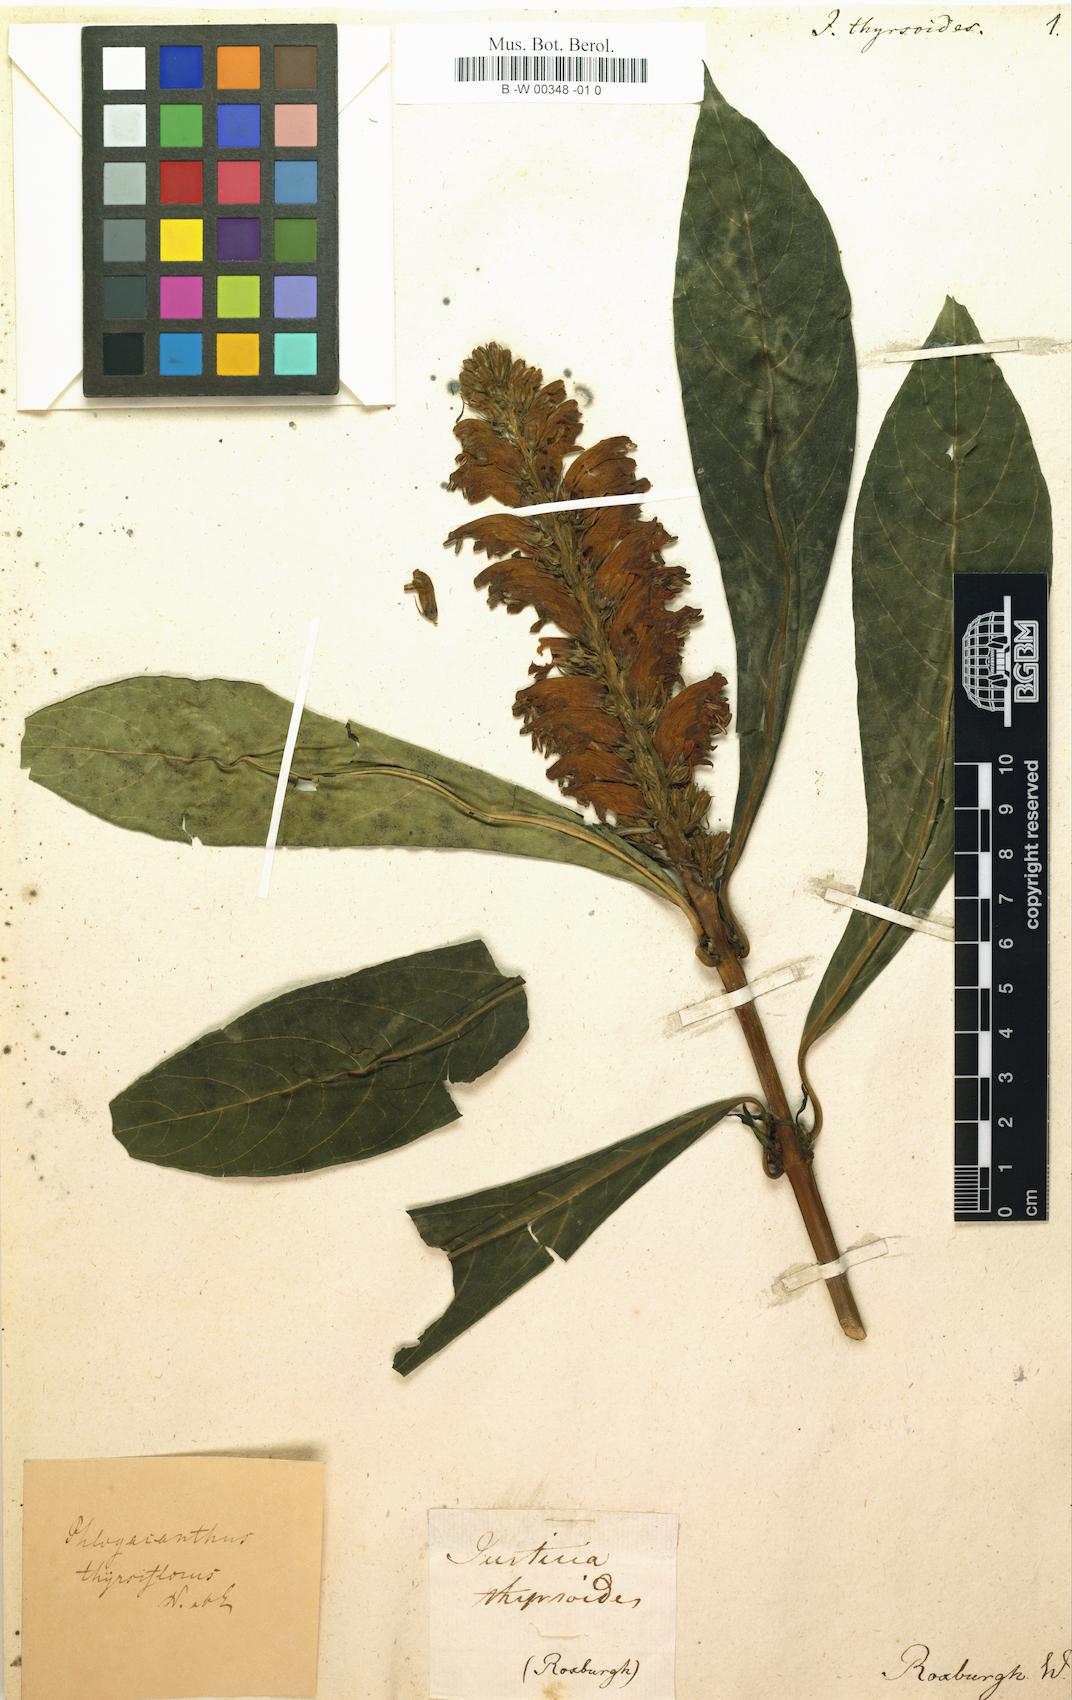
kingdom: Plantae
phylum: Tracheophyta
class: Magnoliopsida
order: Lamiales
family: Acanthaceae
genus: Phlogacanthus
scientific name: Phlogacanthus thyrsiformis
